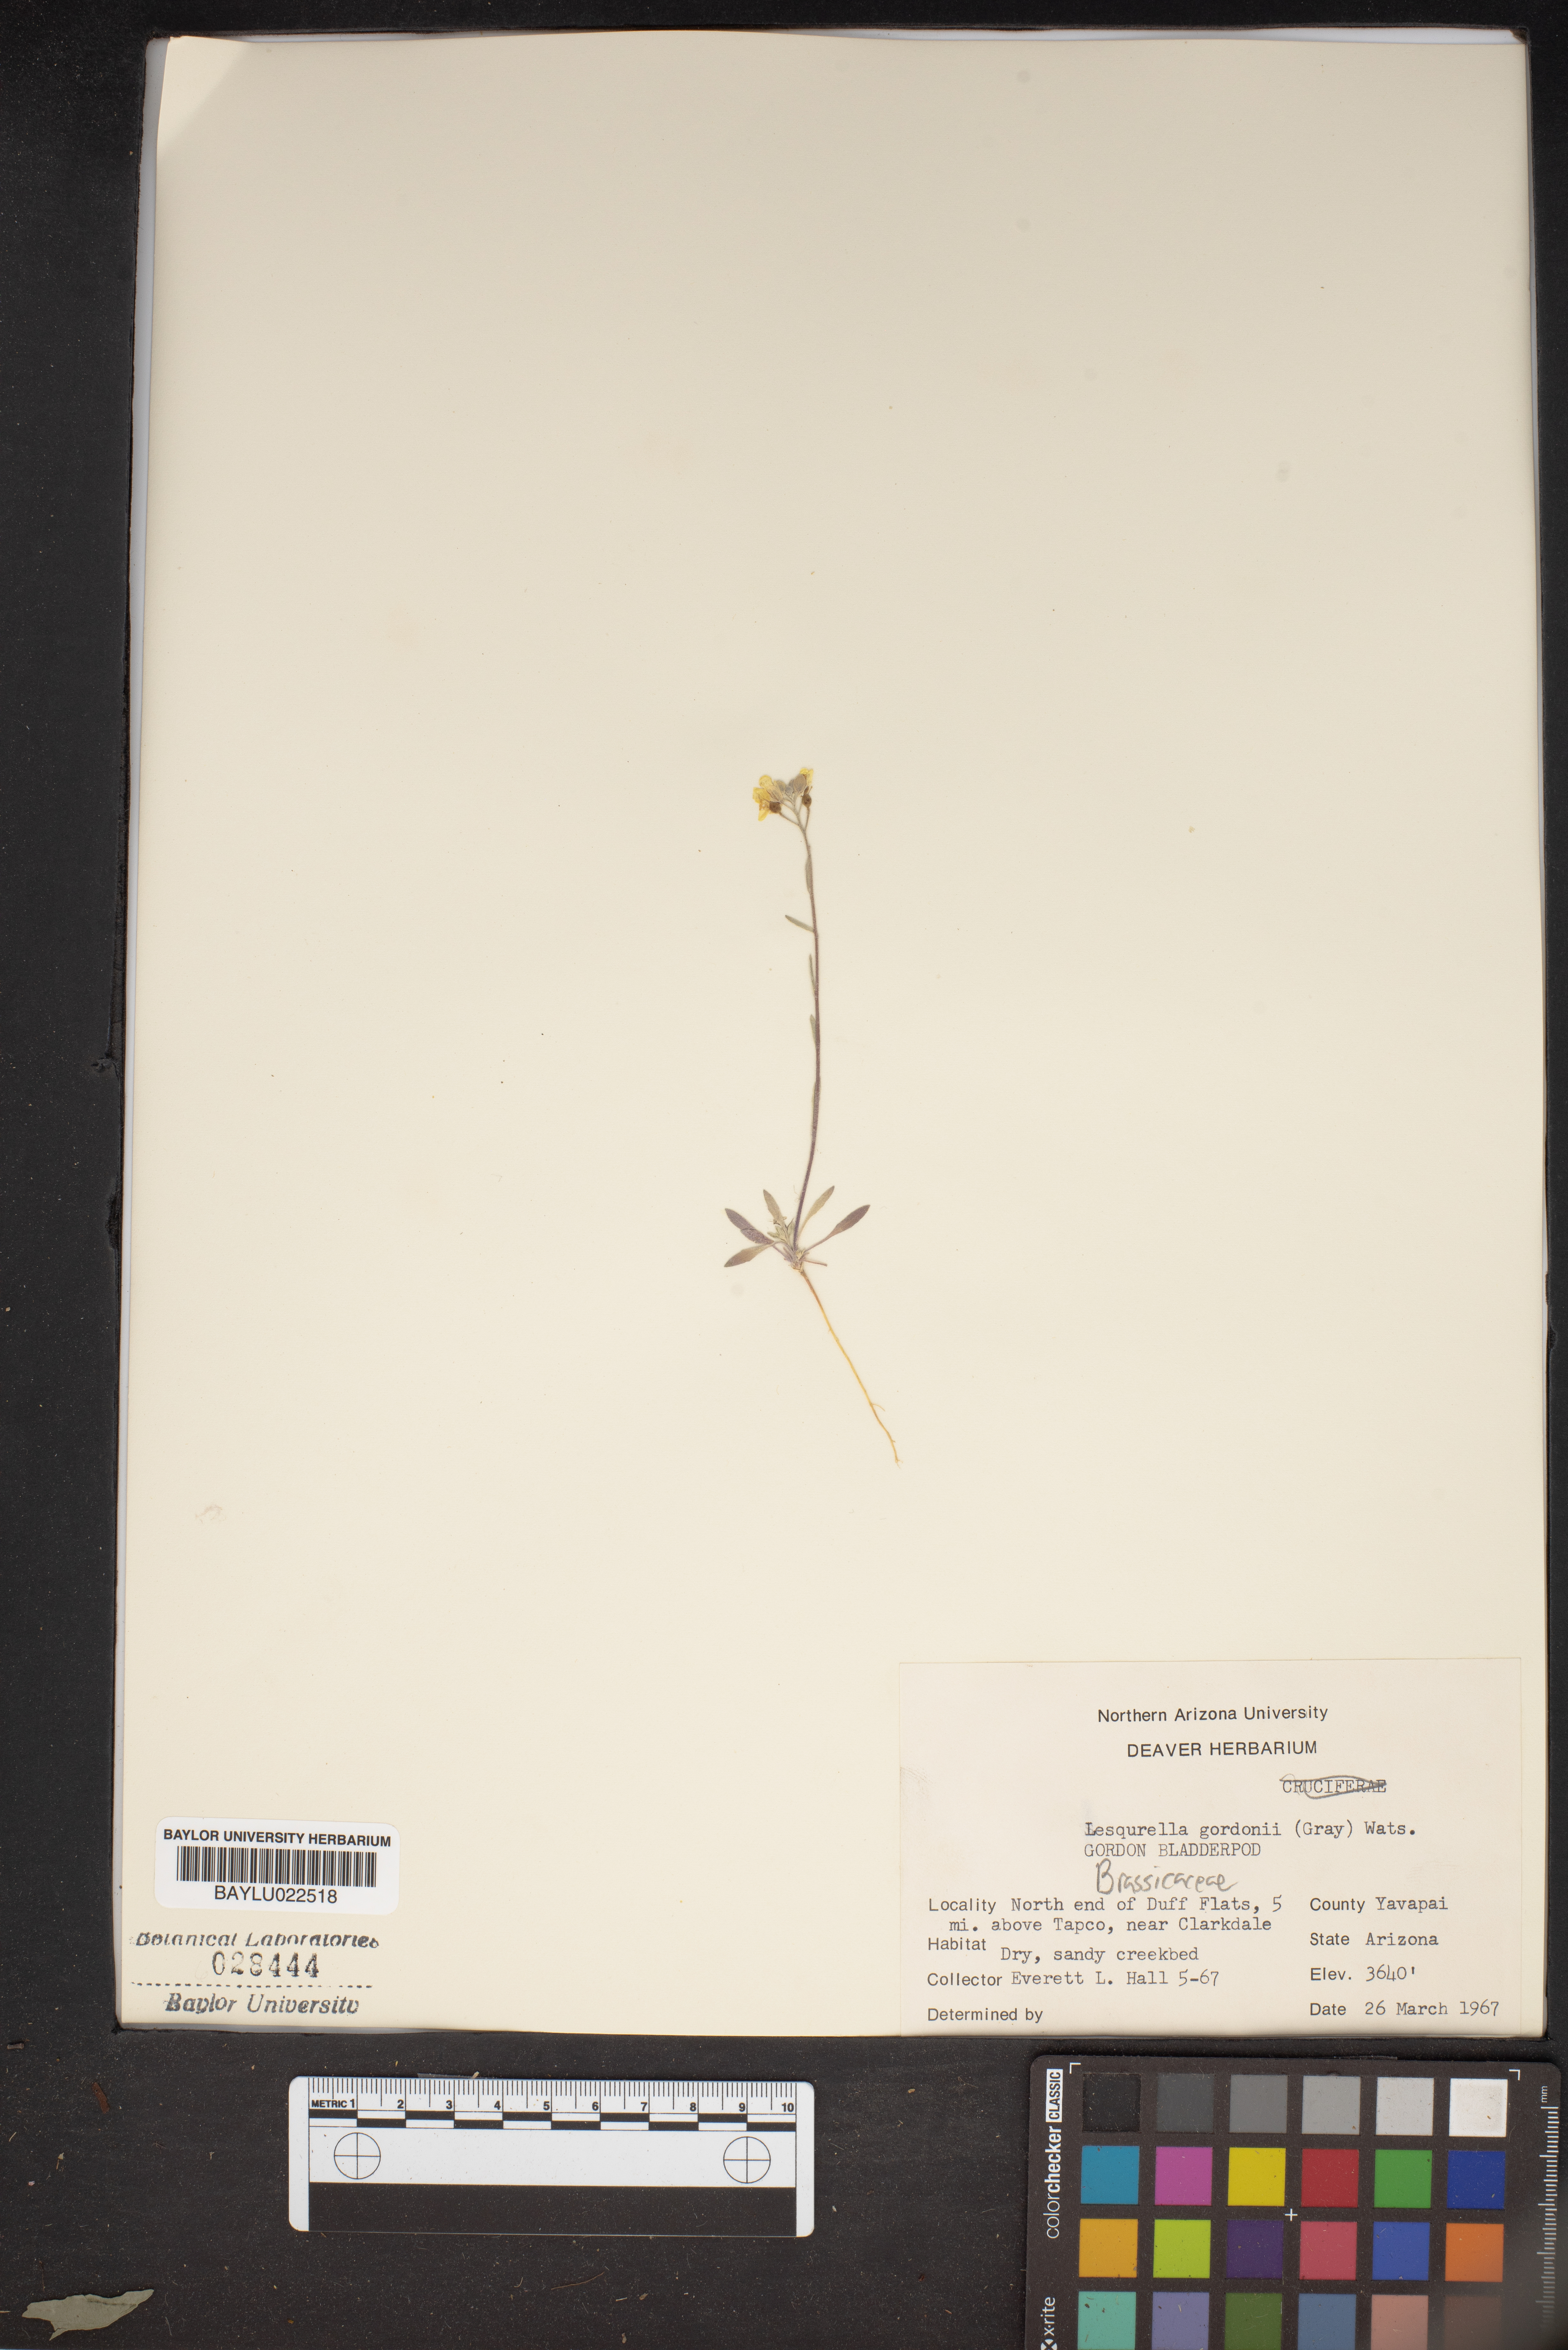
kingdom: Plantae
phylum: Tracheophyta
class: Magnoliopsida
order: Brassicales
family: Brassicaceae
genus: Physaria
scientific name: Physaria gordonii
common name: Gordon's bladderpod
